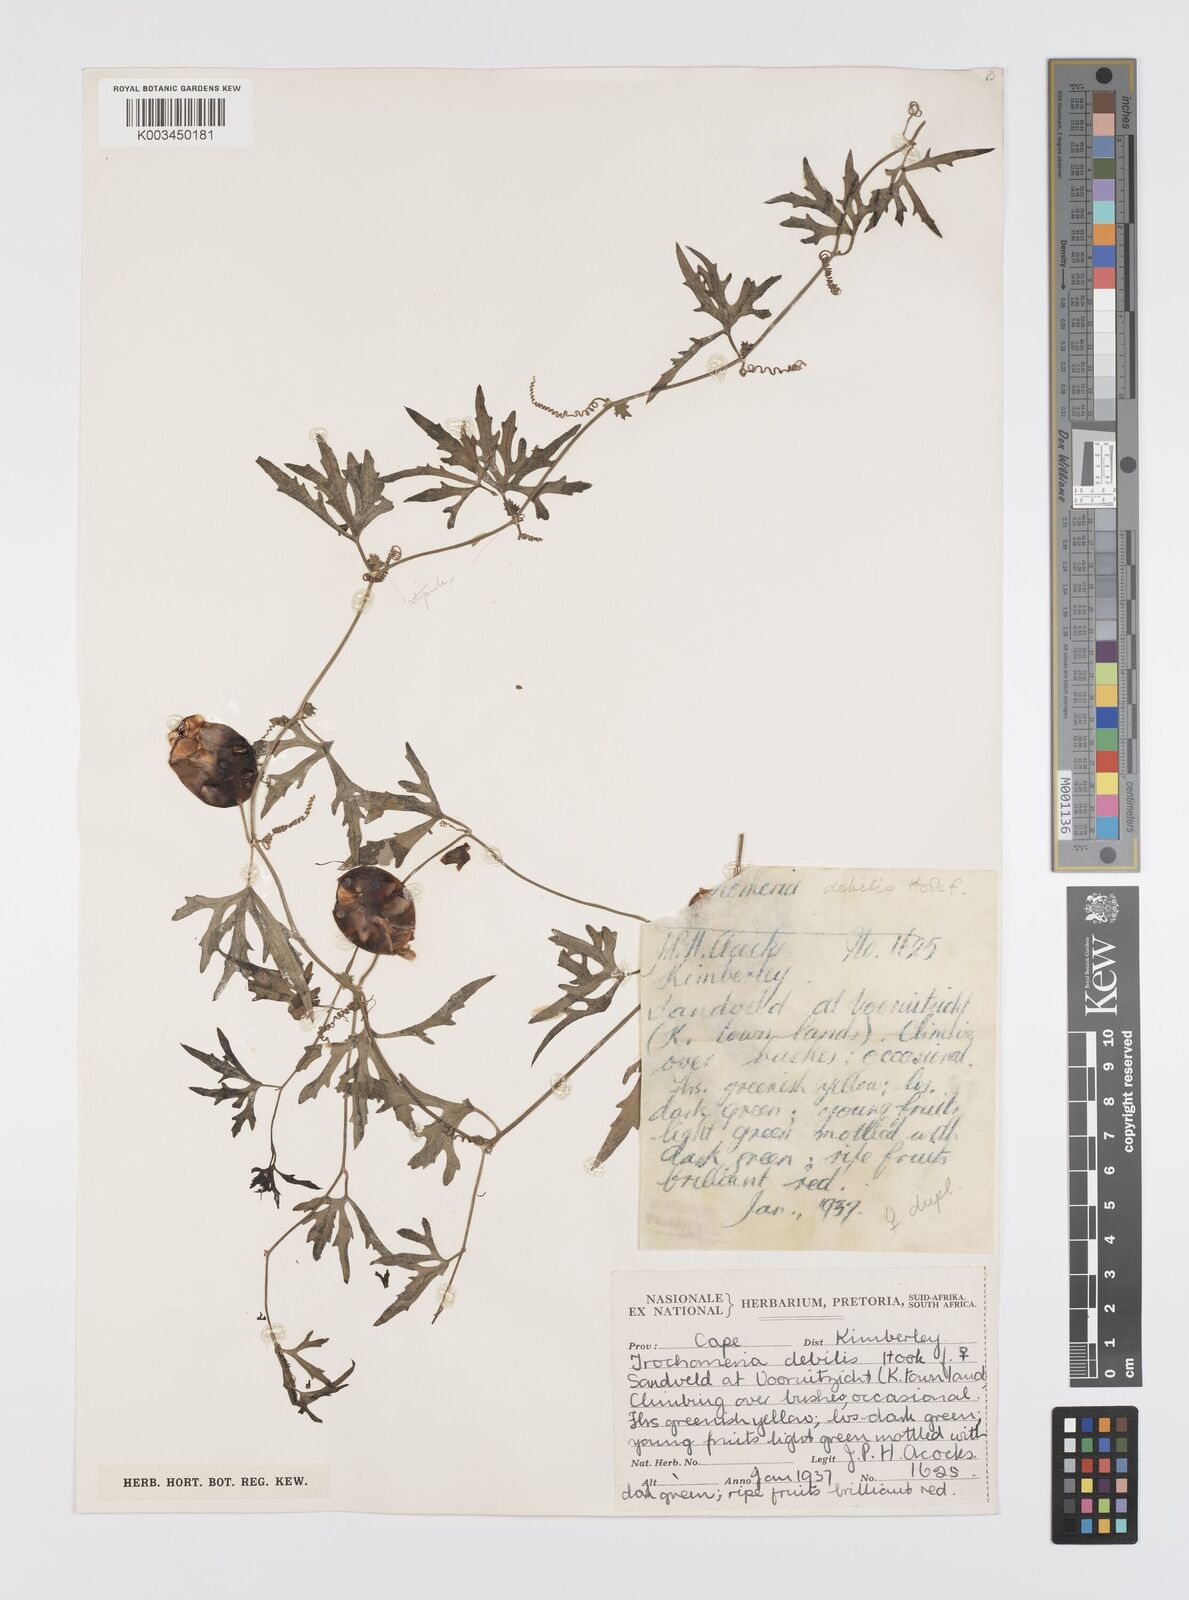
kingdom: Plantae
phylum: Tracheophyta
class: Magnoliopsida
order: Cucurbitales
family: Cucurbitaceae
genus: Trochomeria
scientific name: Trochomeria debilis
